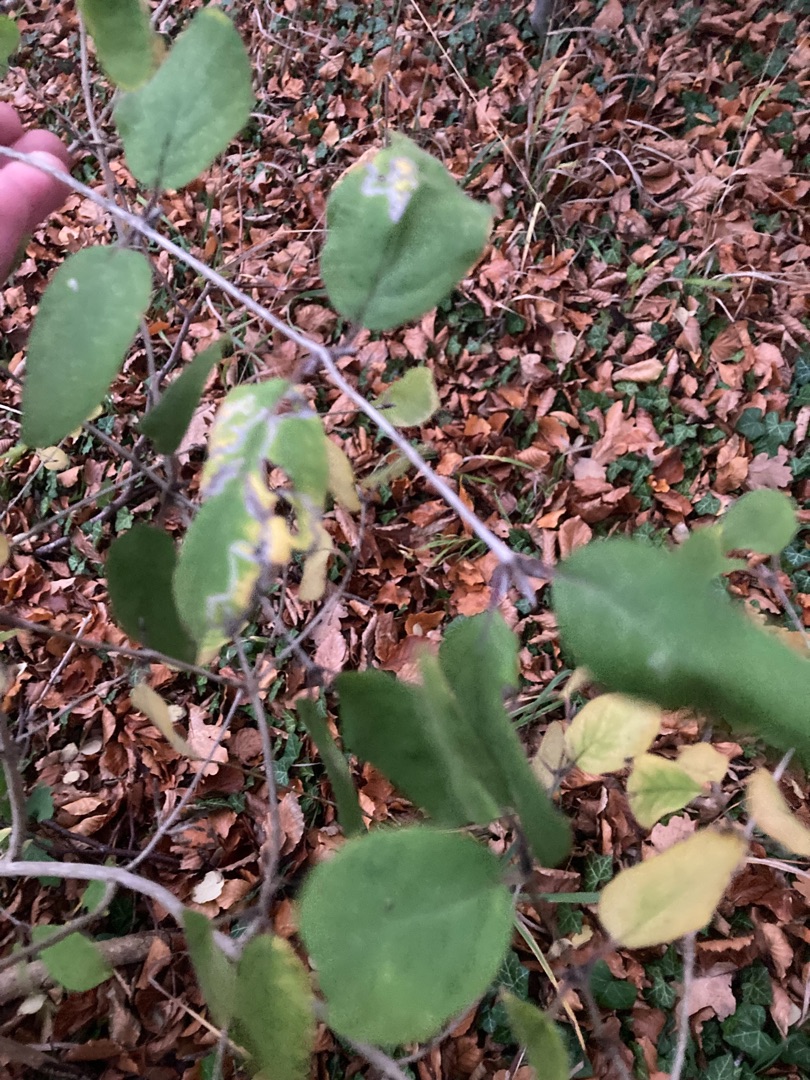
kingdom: Plantae
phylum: Tracheophyta
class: Magnoliopsida
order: Dipsacales
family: Caprifoliaceae
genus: Lonicera
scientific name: Lonicera xylosteum
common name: Dunet gedeblad
